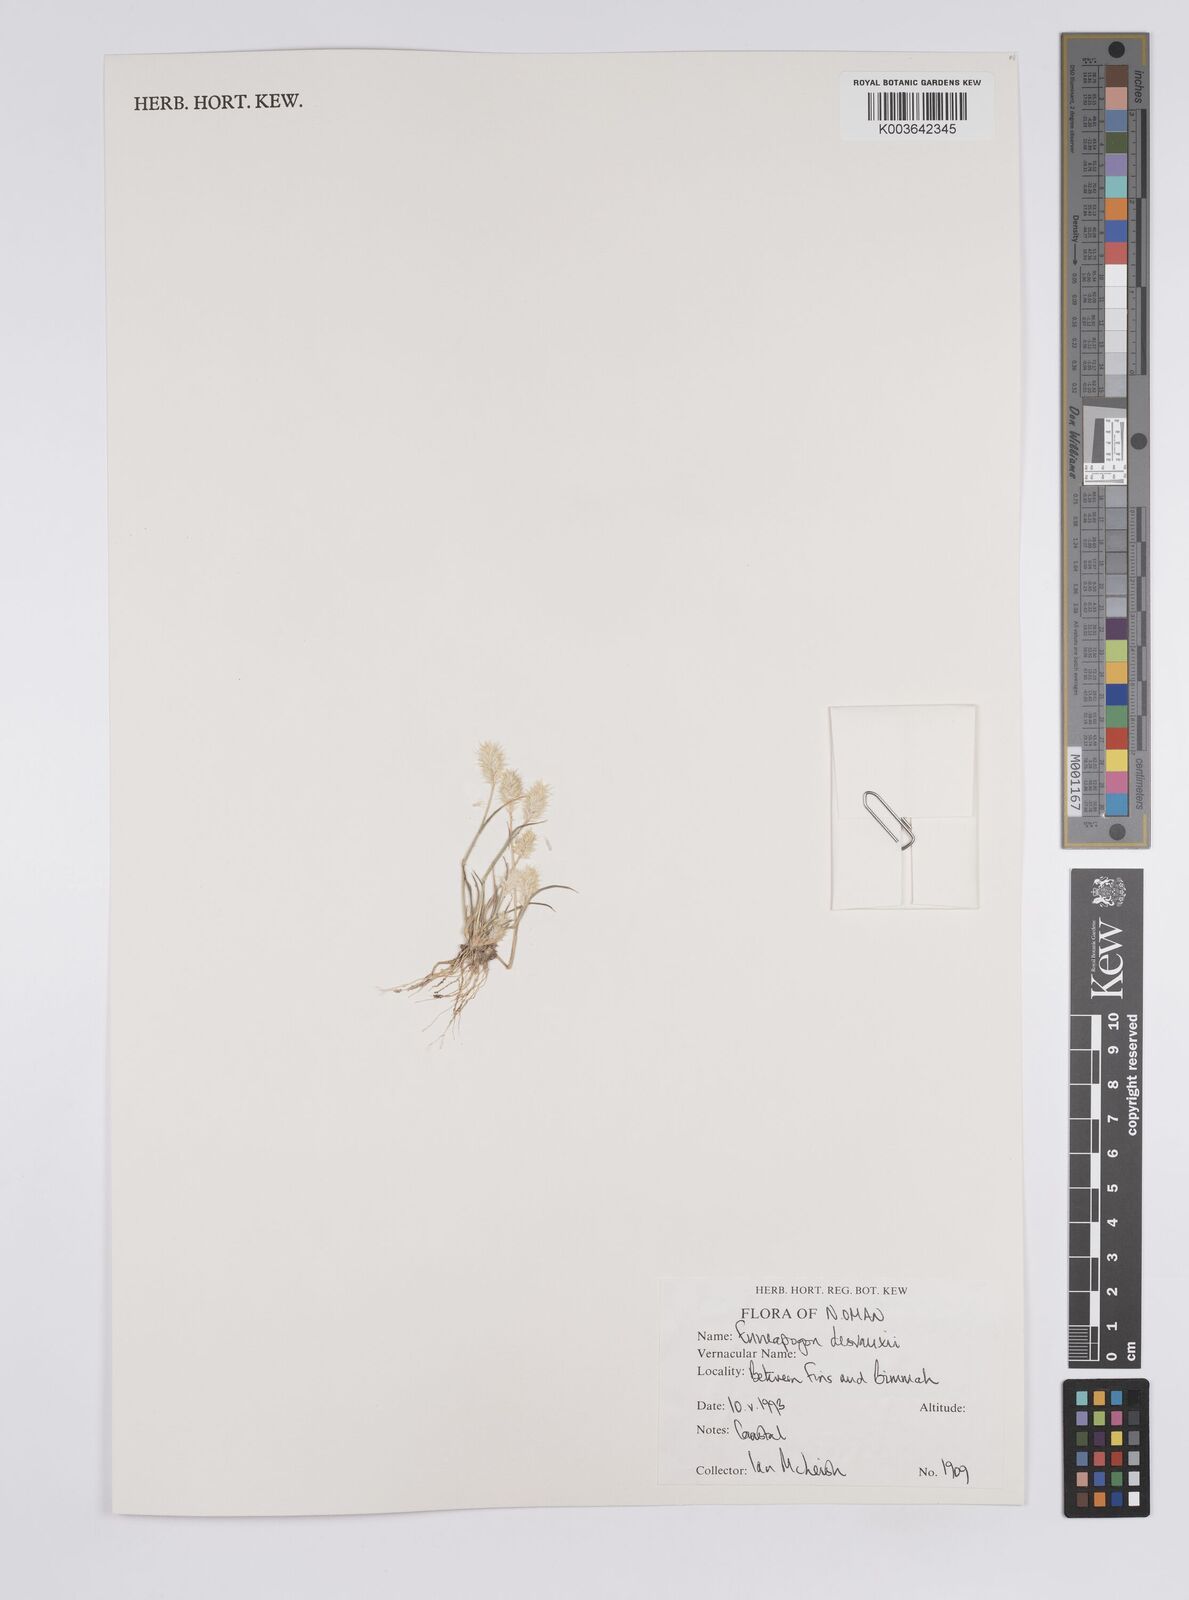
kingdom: Plantae
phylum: Tracheophyta
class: Liliopsida
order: Poales
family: Poaceae
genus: Enneapogon
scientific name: Enneapogon desvauxii
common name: Feather pappus grass
